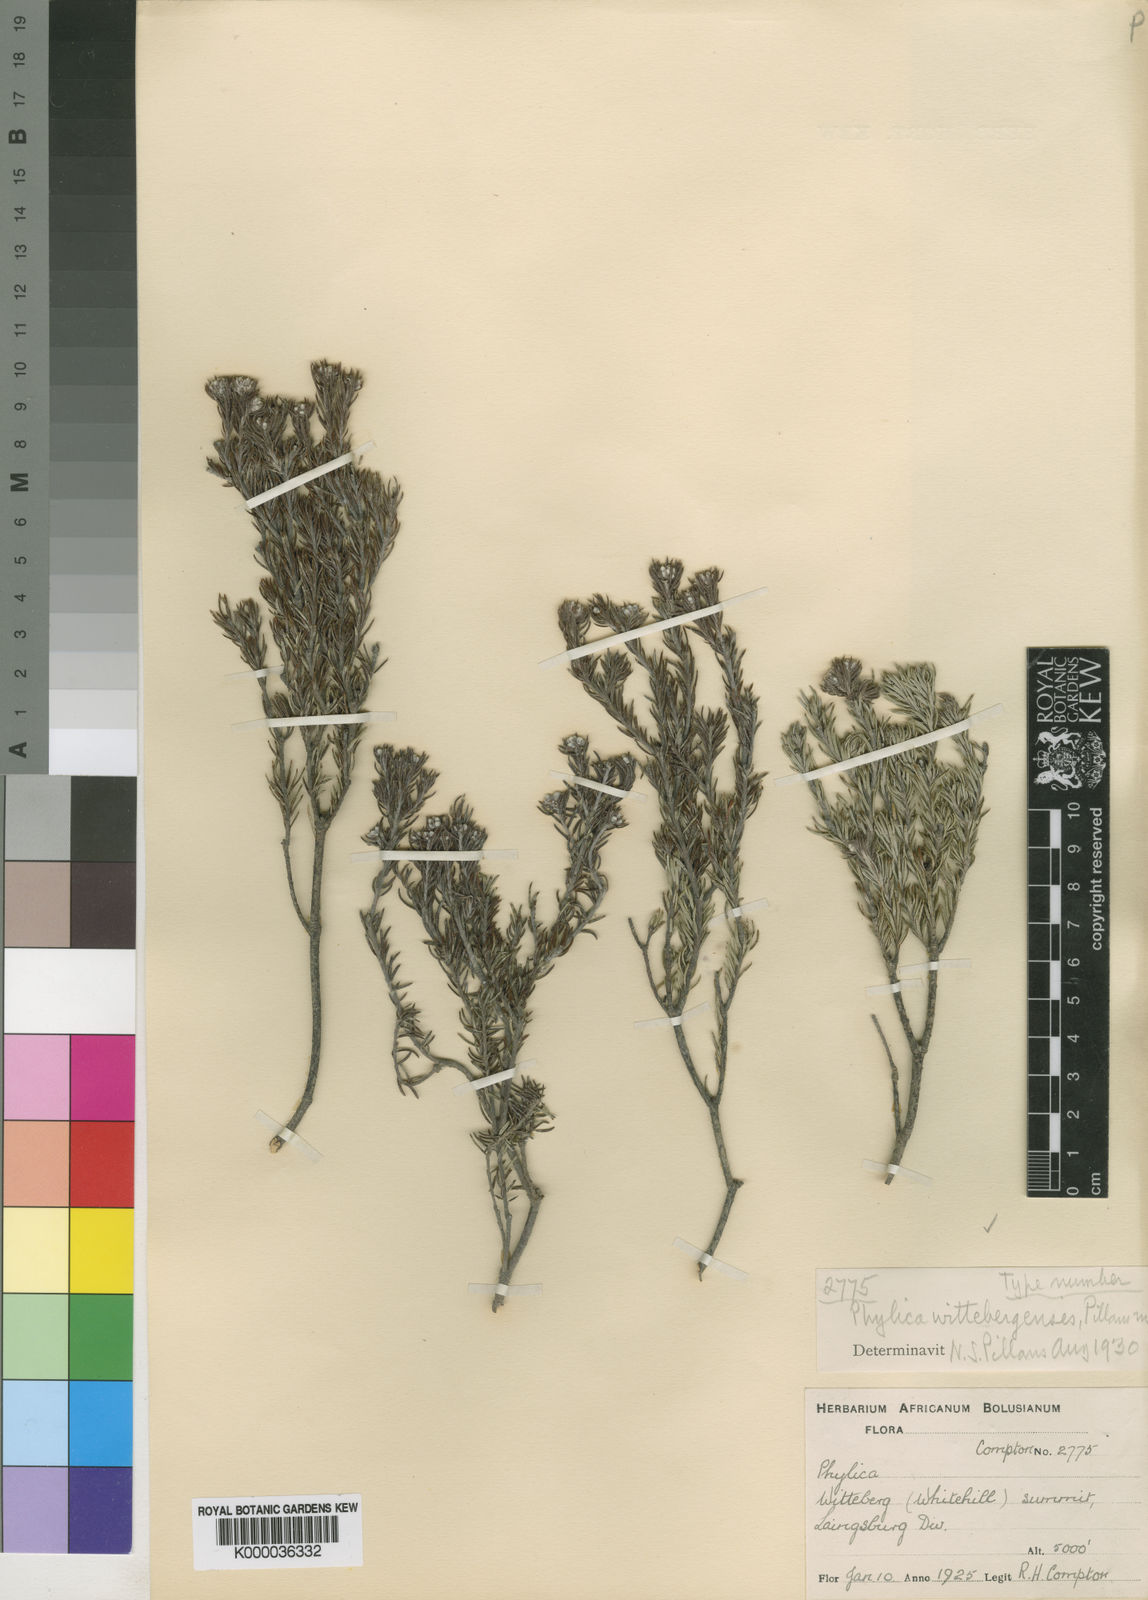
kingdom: Plantae
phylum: Tracheophyta
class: Magnoliopsida
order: Rosales
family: Rhamnaceae
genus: Phylica
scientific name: Phylica wittebergensis
